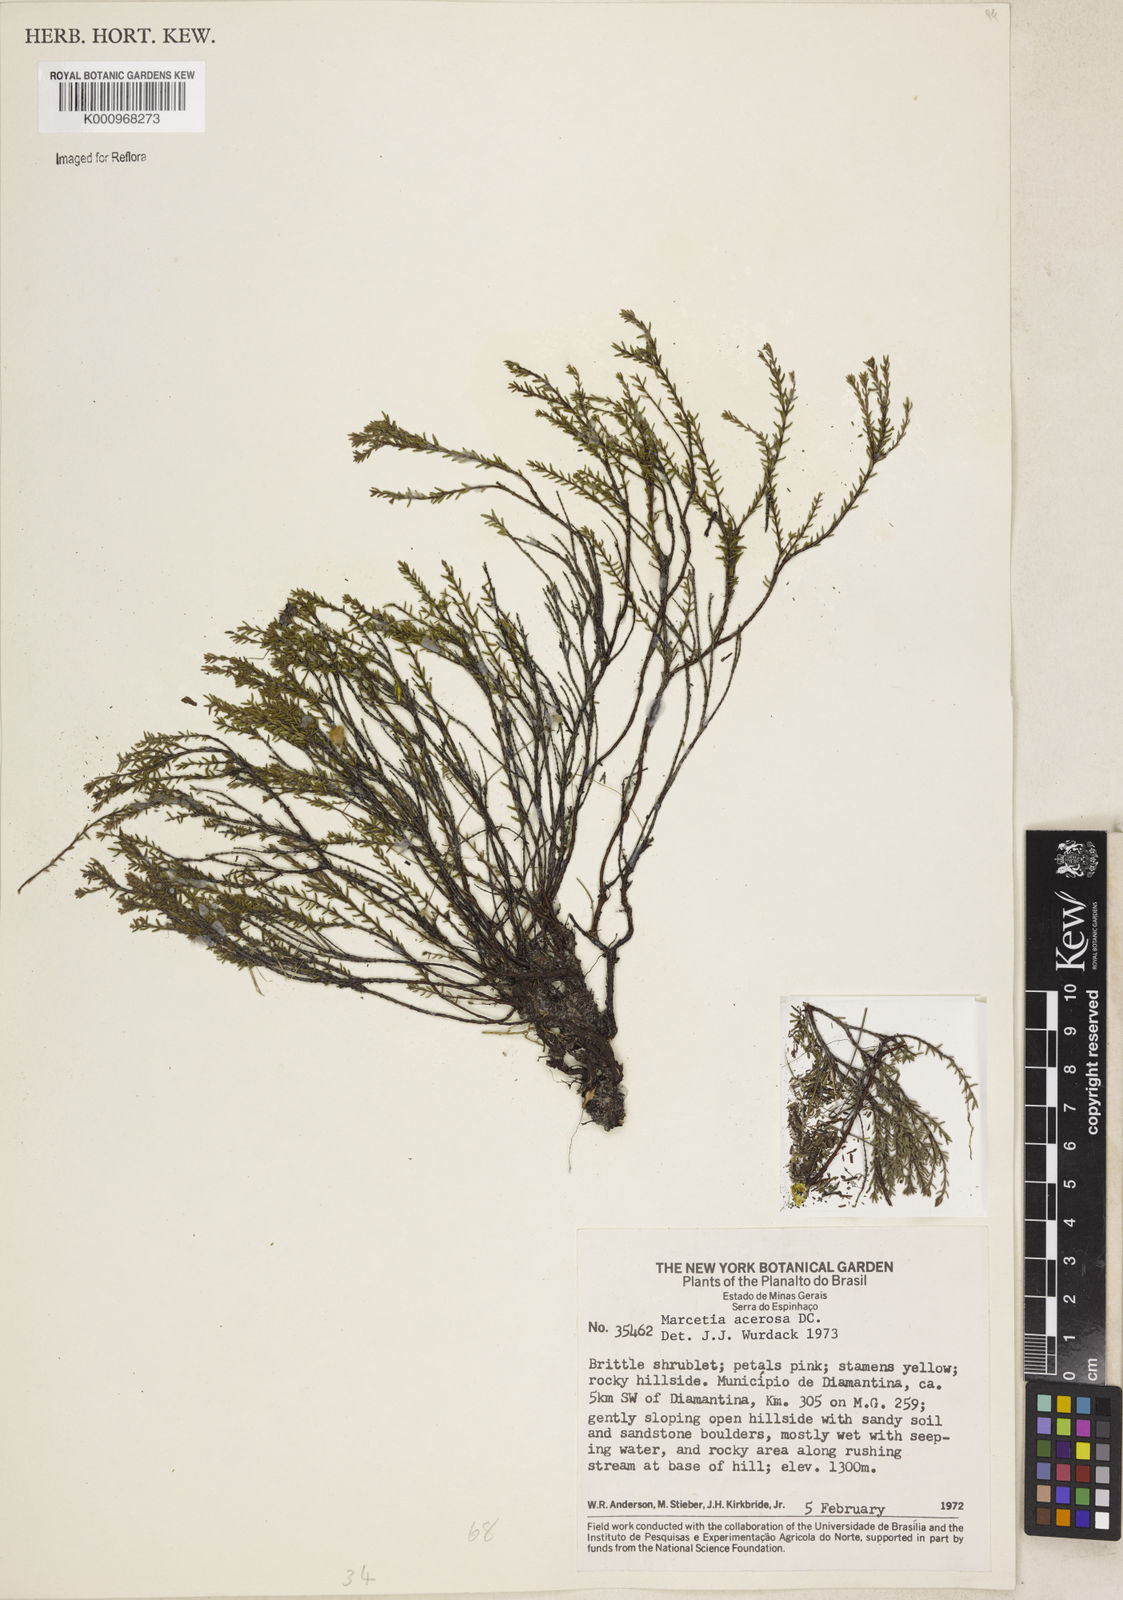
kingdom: Plantae
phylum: Tracheophyta
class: Magnoliopsida
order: Myrtales
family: Melastomataceae
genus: Marcetia
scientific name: Marcetia acerosa
